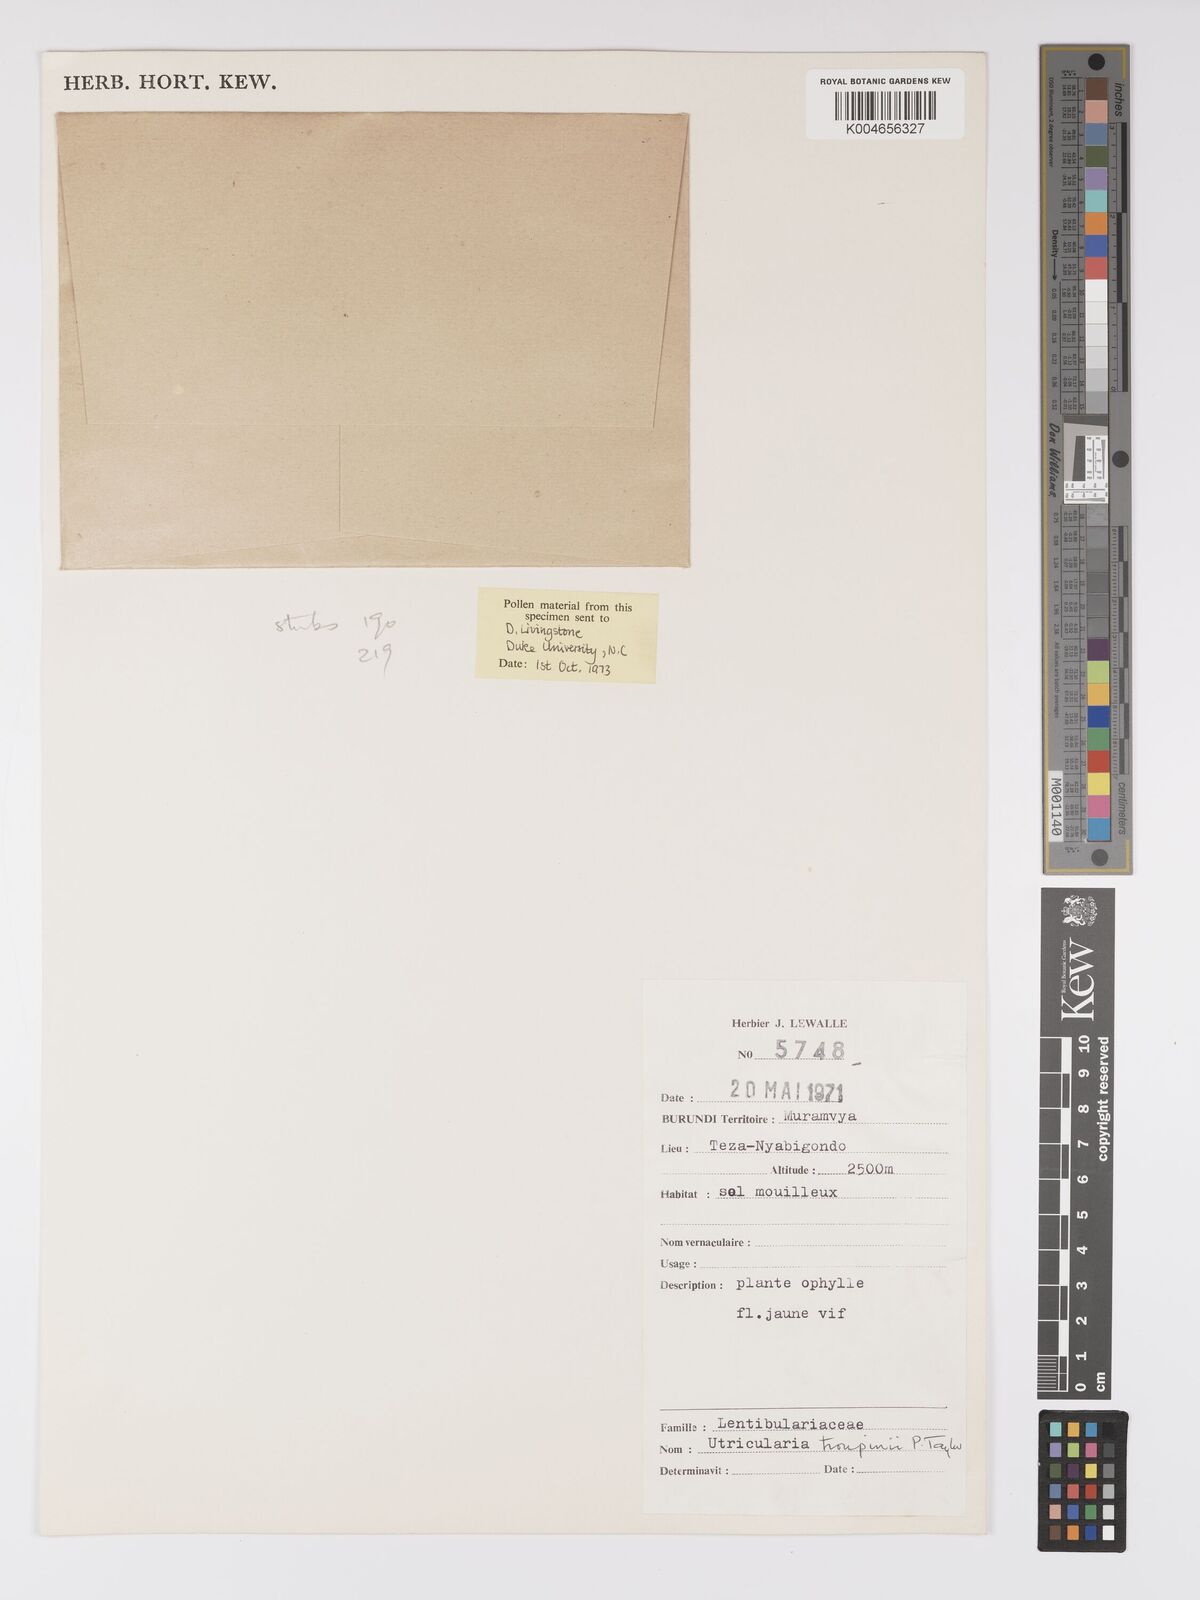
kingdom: Plantae
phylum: Tracheophyta
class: Magnoliopsida
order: Lamiales
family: Lentibulariaceae
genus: Utricularia
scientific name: Utricularia troupinii
